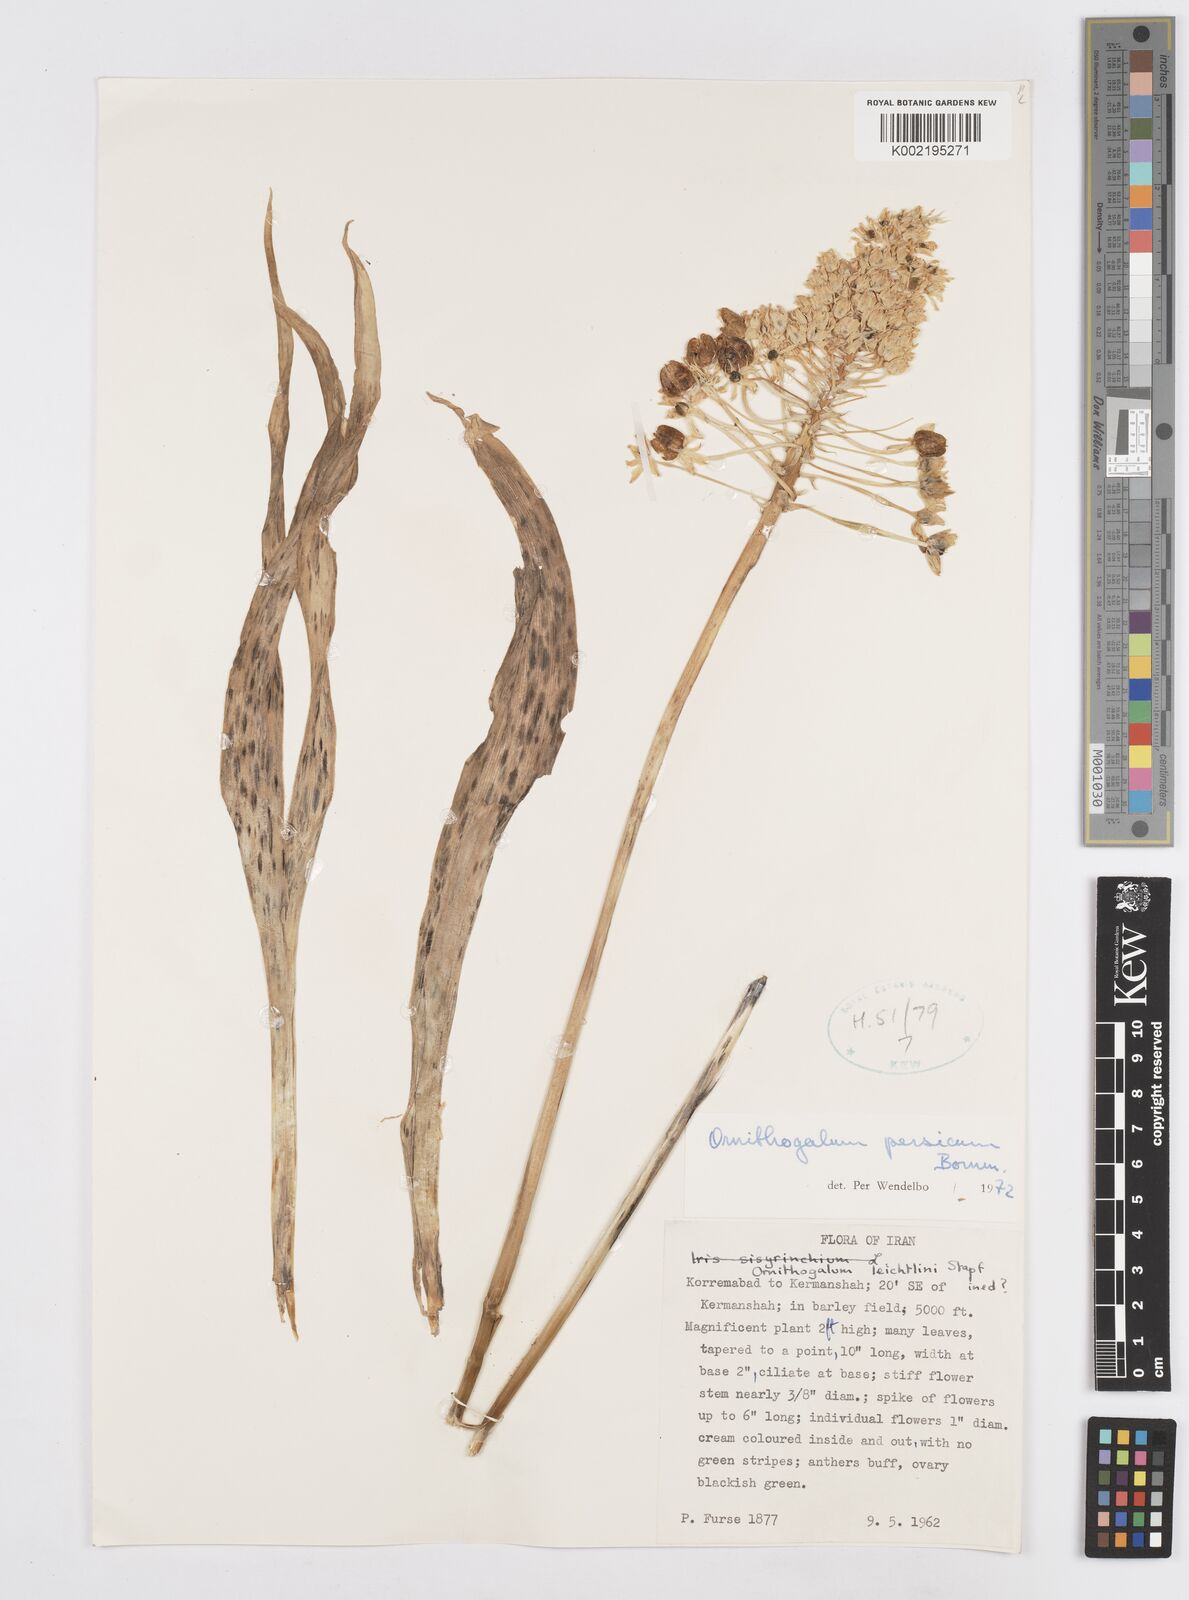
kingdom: Plantae
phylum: Tracheophyta
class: Liliopsida
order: Asparagales
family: Asparagaceae
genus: Ornithogalum
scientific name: Ornithogalum persicum
